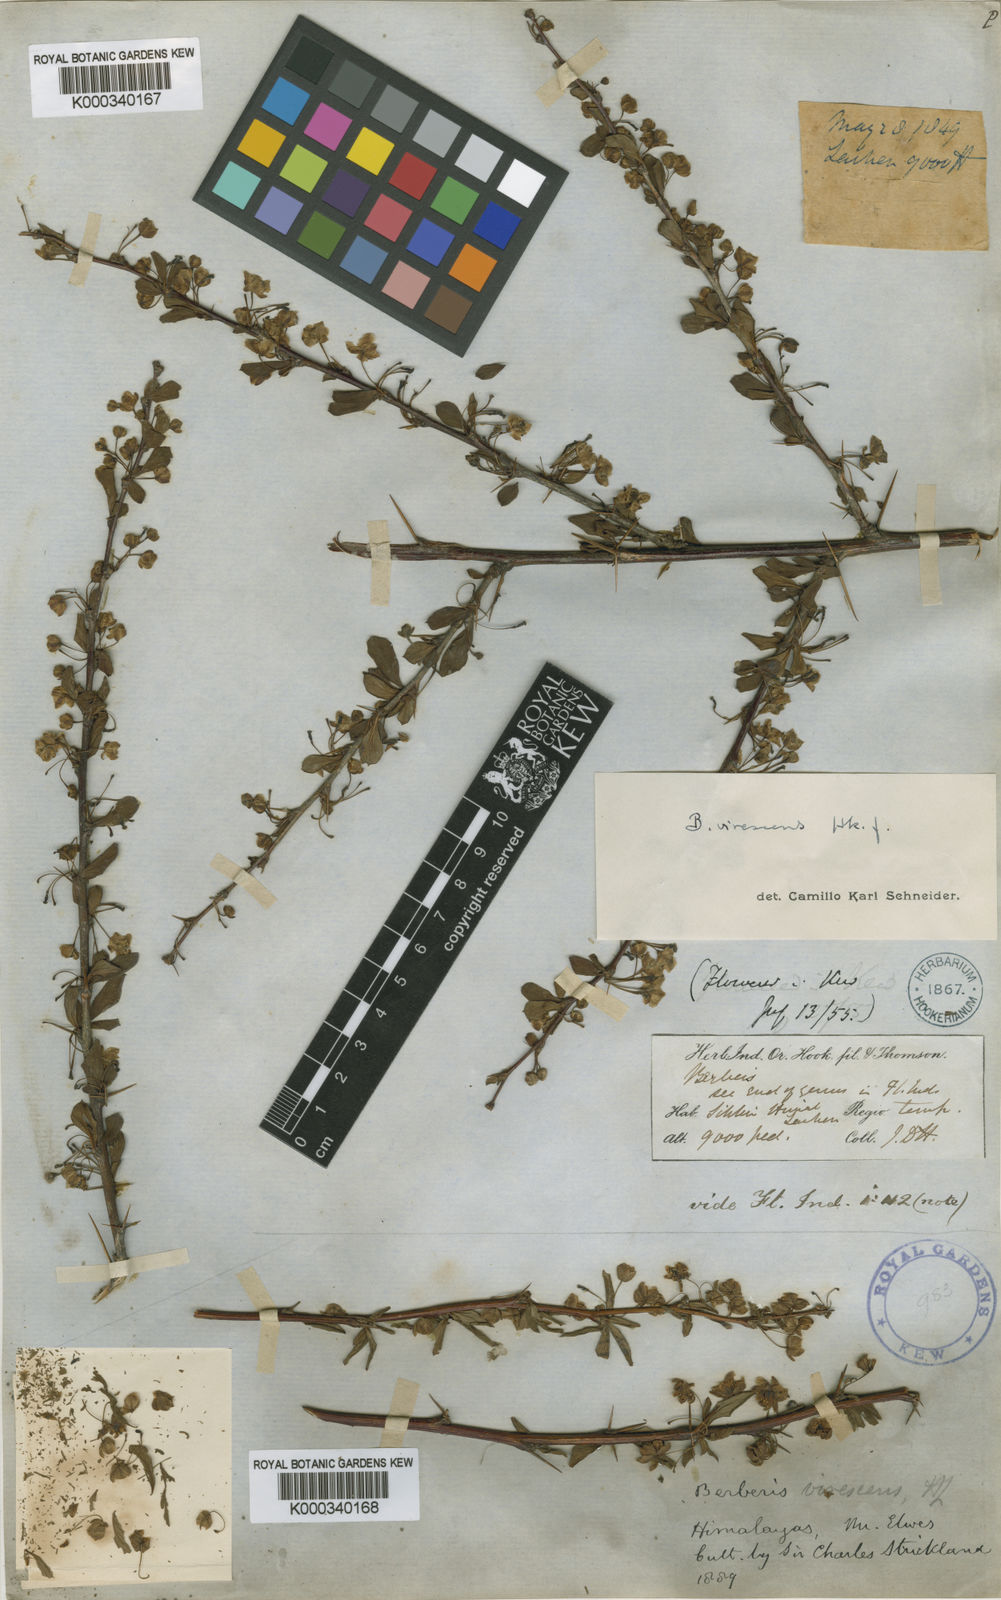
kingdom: Plantae
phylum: Tracheophyta
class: Magnoliopsida
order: Ranunculales
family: Berberidaceae
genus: Berberis
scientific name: Berberis virescens
